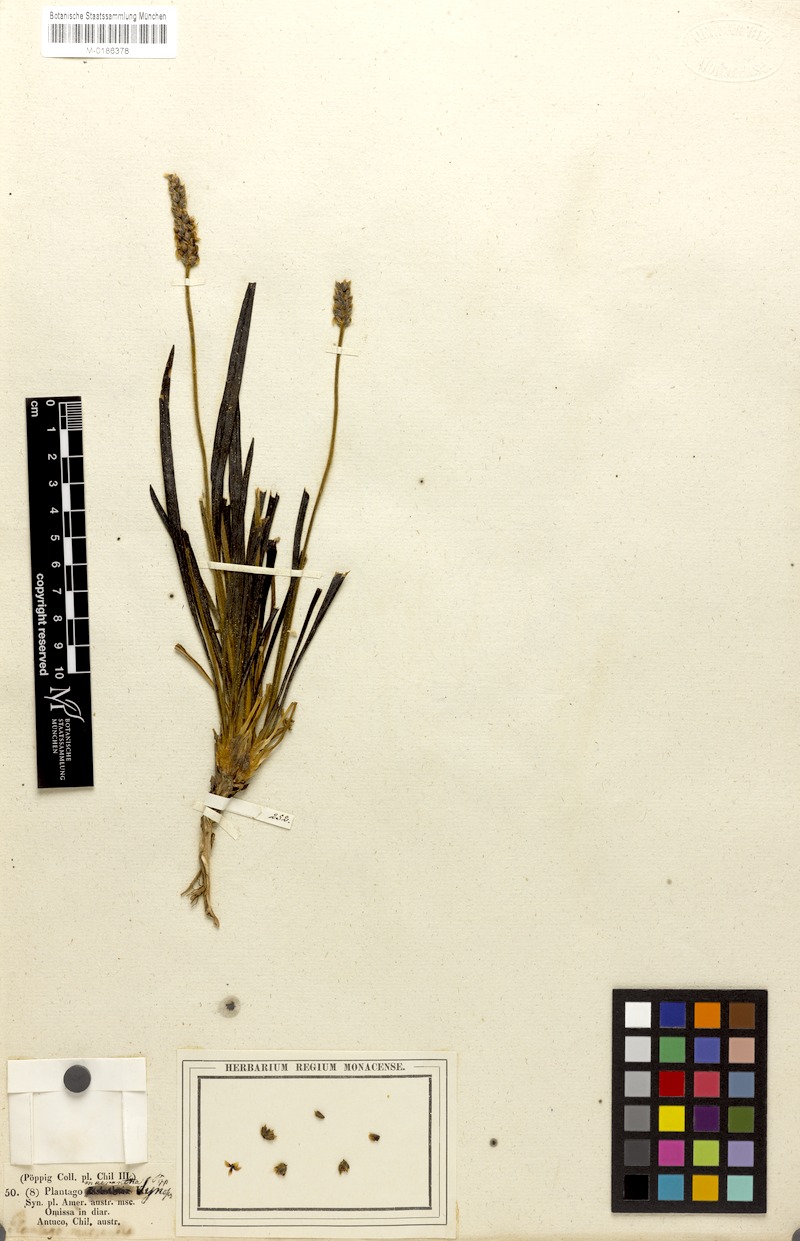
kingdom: Plantae
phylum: Tracheophyta
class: Magnoliopsida
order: Lamiales
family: Plantaginaceae
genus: Plantago
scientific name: Plantago brasiliensis
